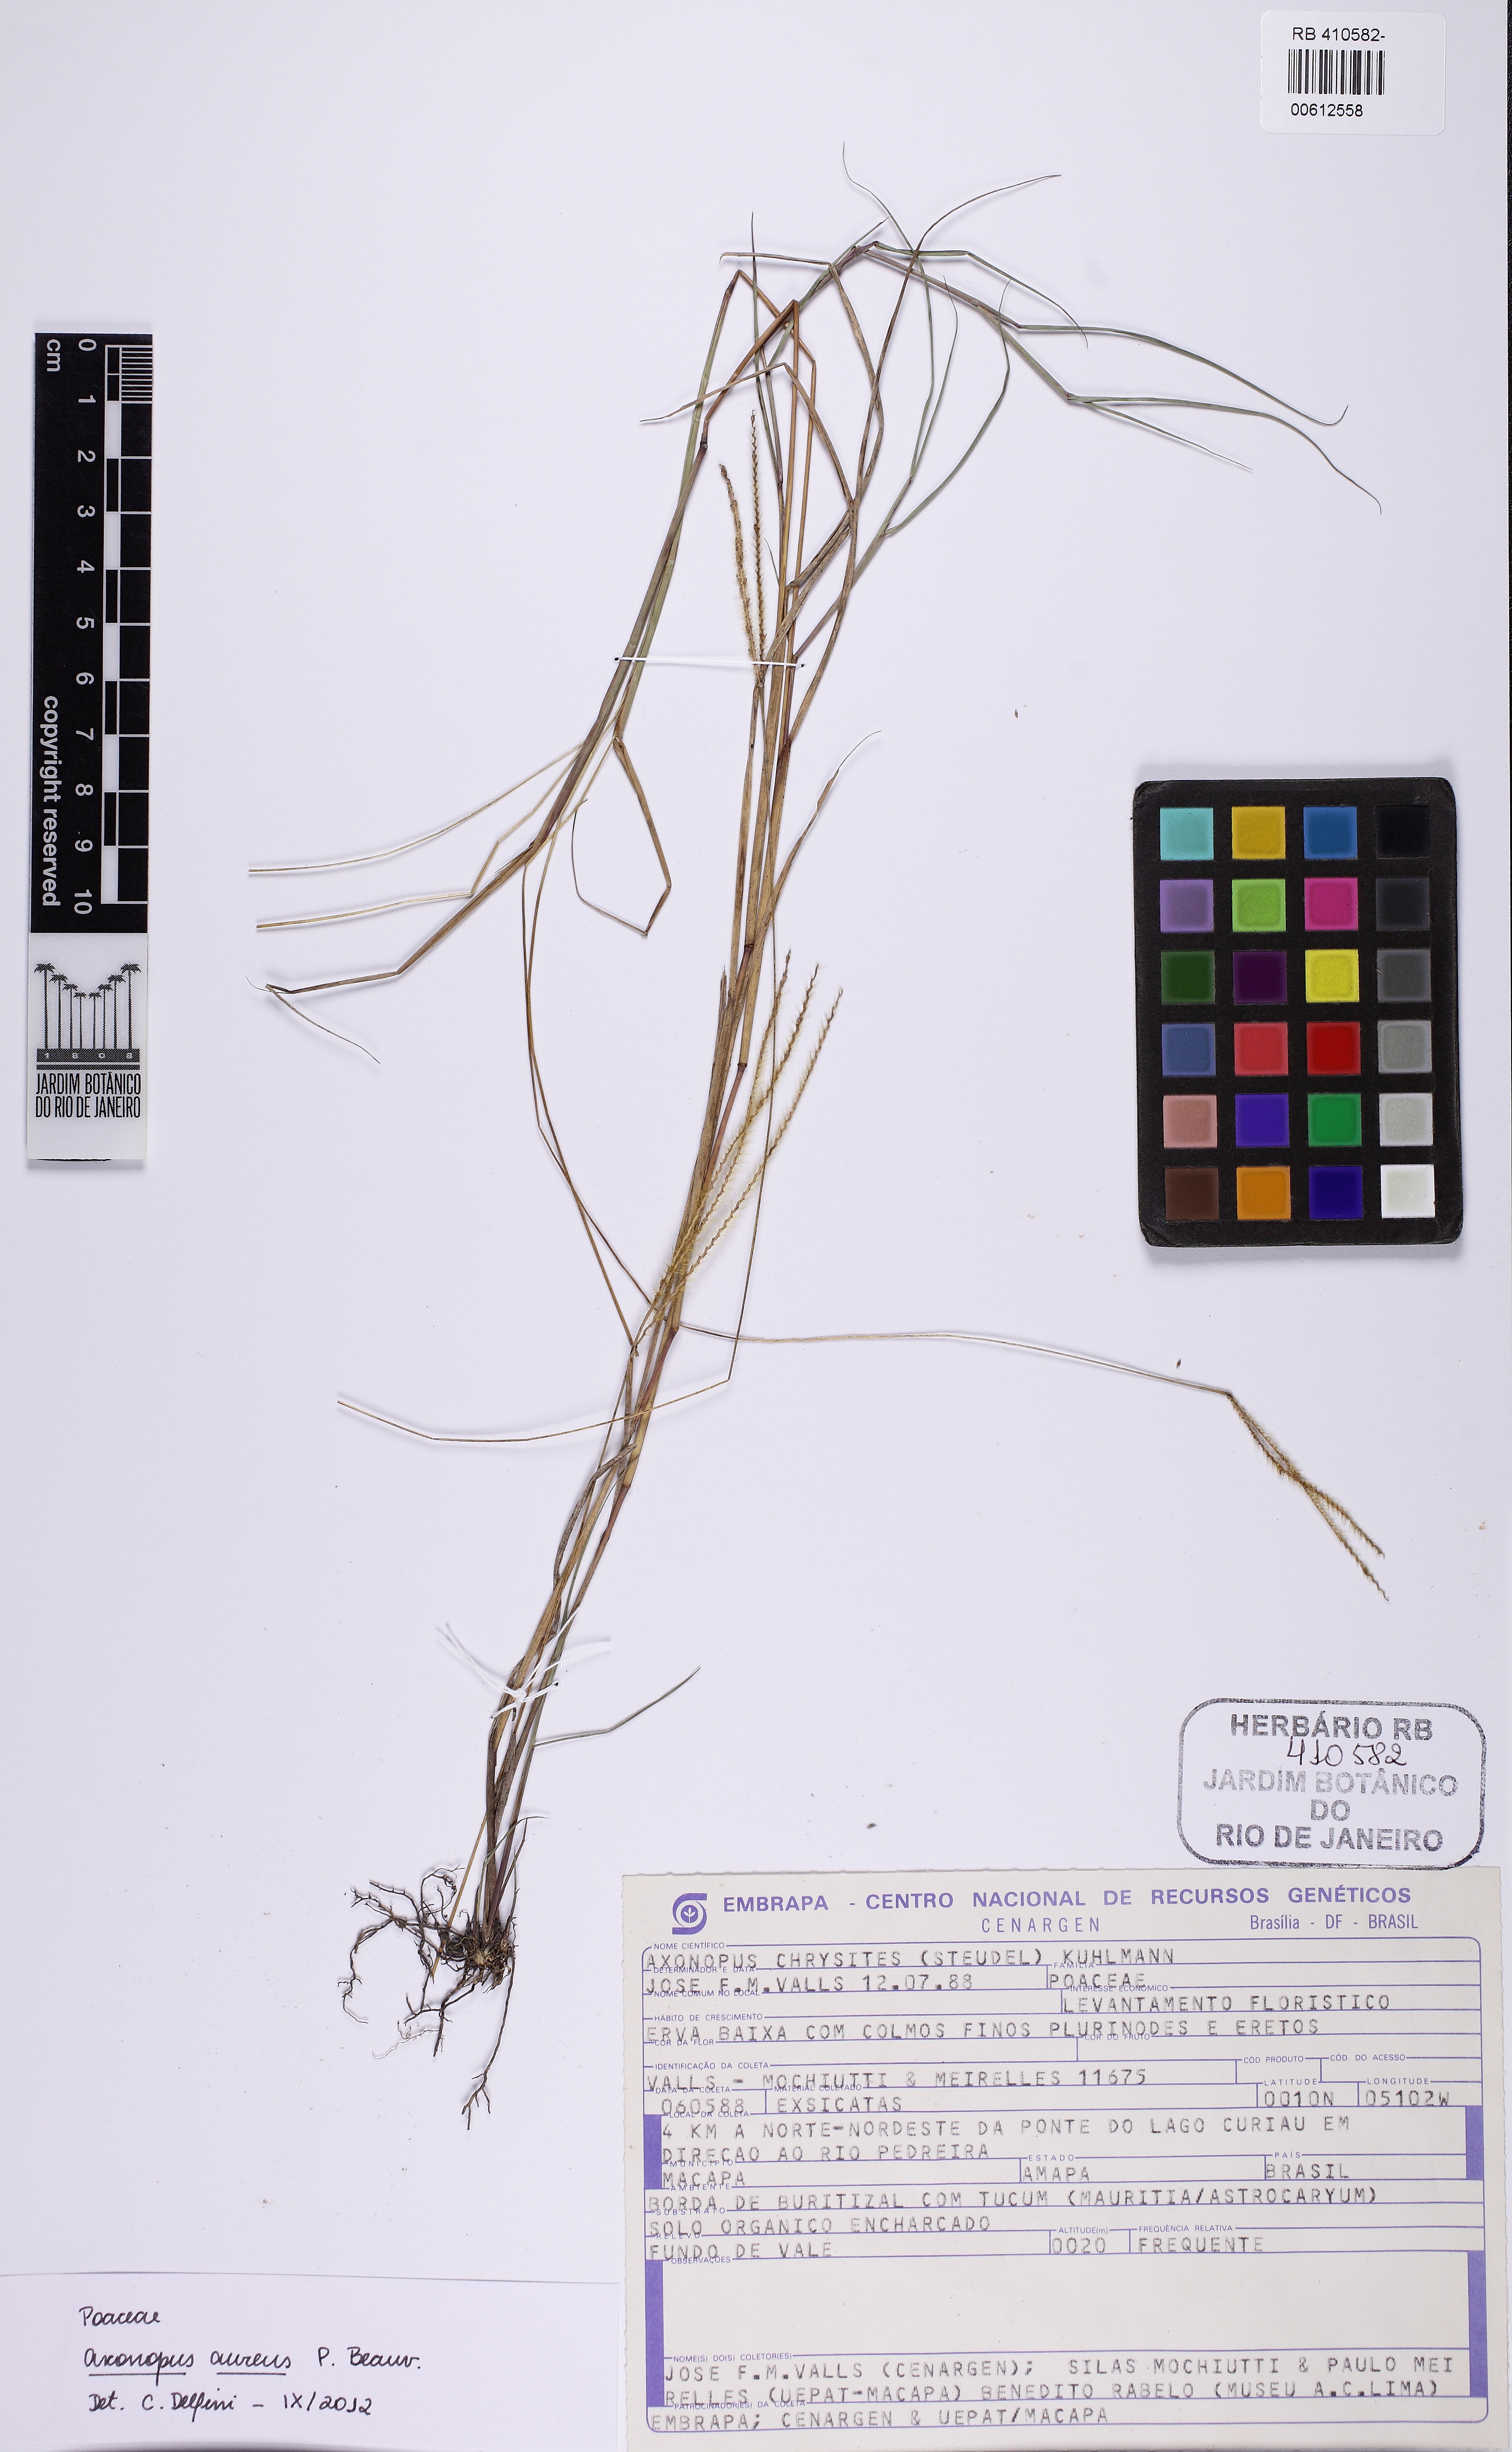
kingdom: Plantae
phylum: Tracheophyta
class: Liliopsida
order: Poales
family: Poaceae
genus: Axonopus
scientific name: Axonopus aureus
